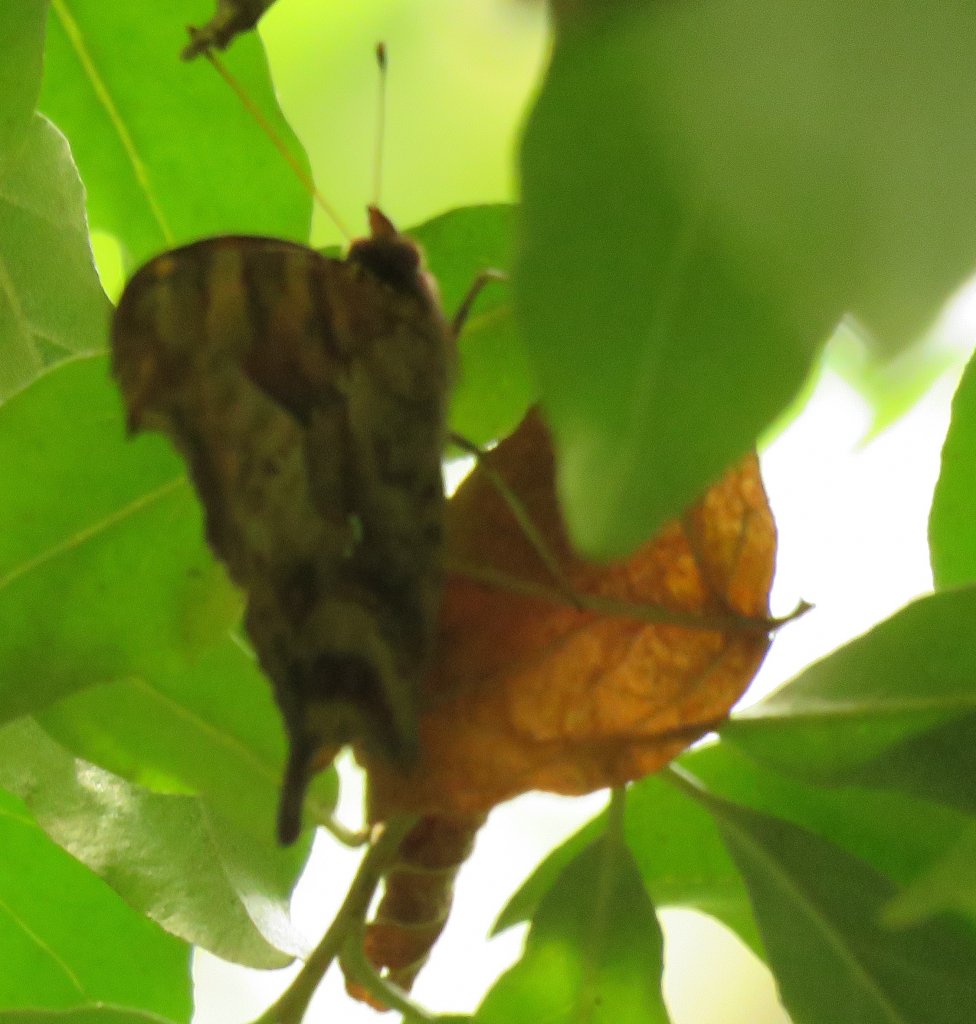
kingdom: Animalia
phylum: Arthropoda
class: Insecta
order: Lepidoptera
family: Nymphalidae
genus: Polygonia
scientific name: Polygonia comma
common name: Eastern Comma
